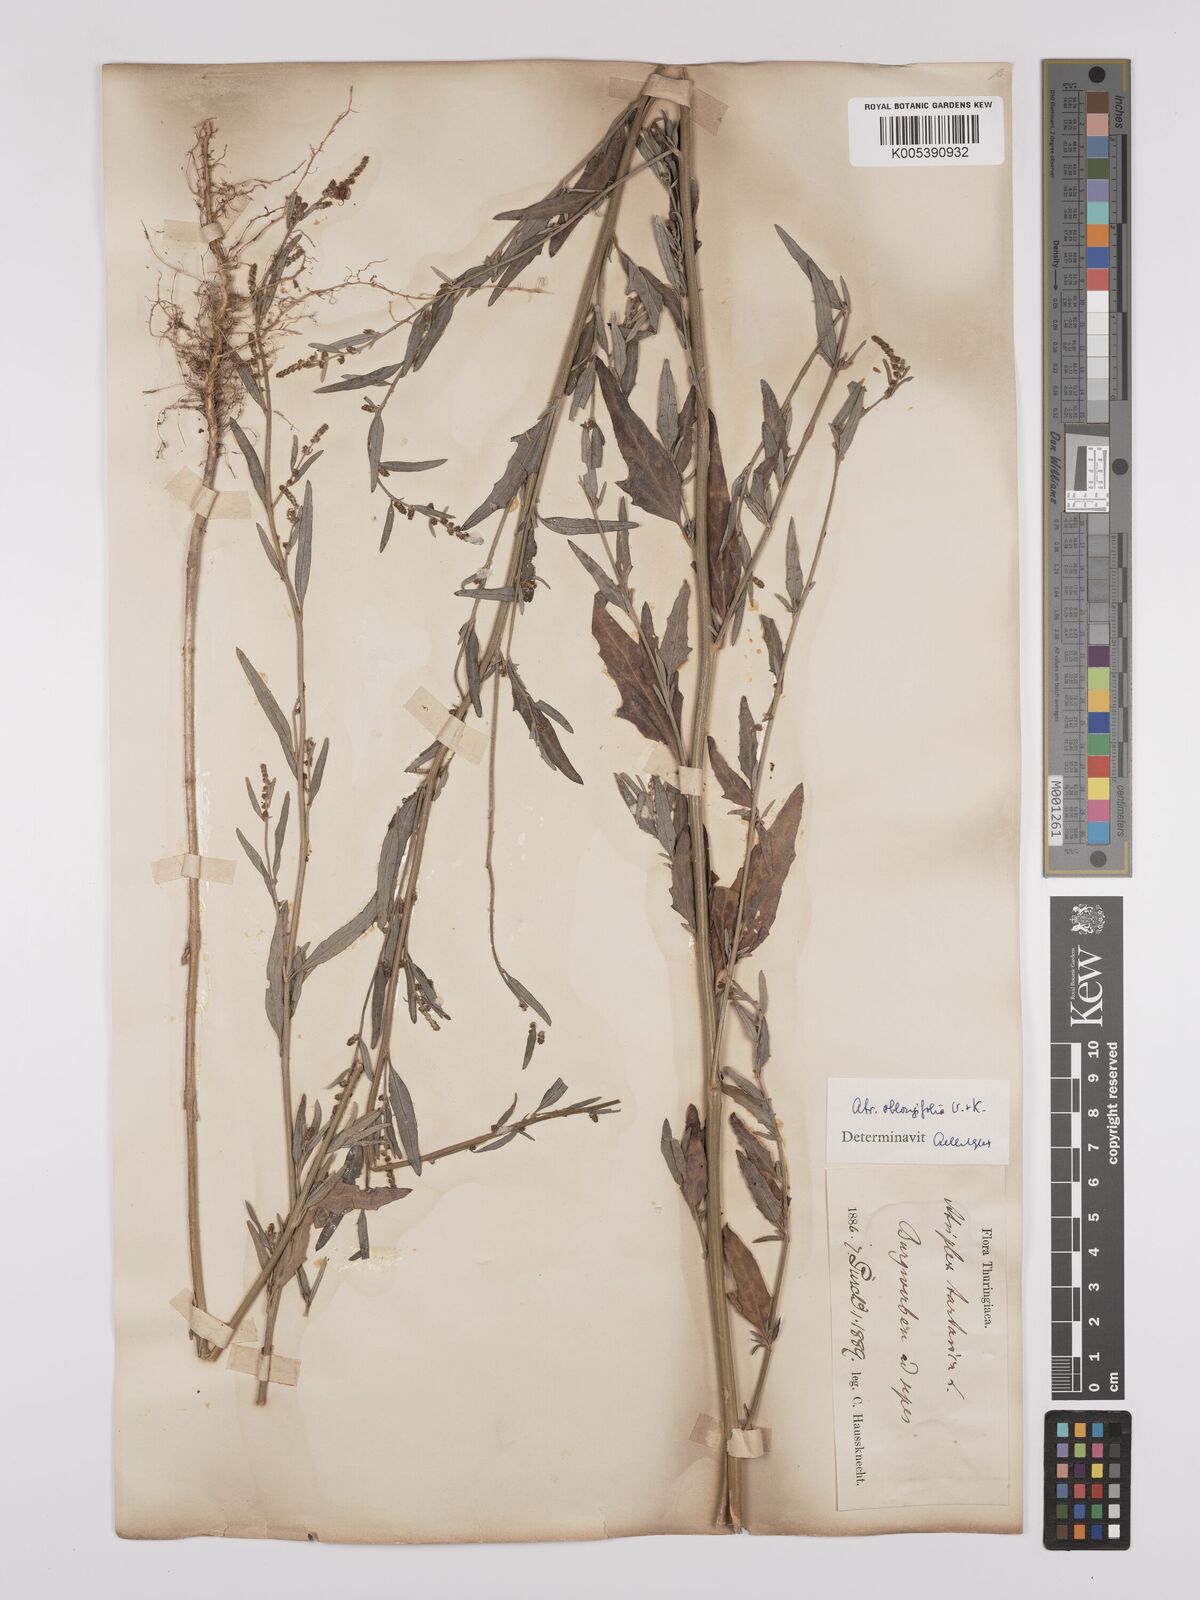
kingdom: Plantae
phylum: Tracheophyta
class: Magnoliopsida
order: Caryophyllales
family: Amaranthaceae
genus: Atriplex
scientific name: Atriplex
